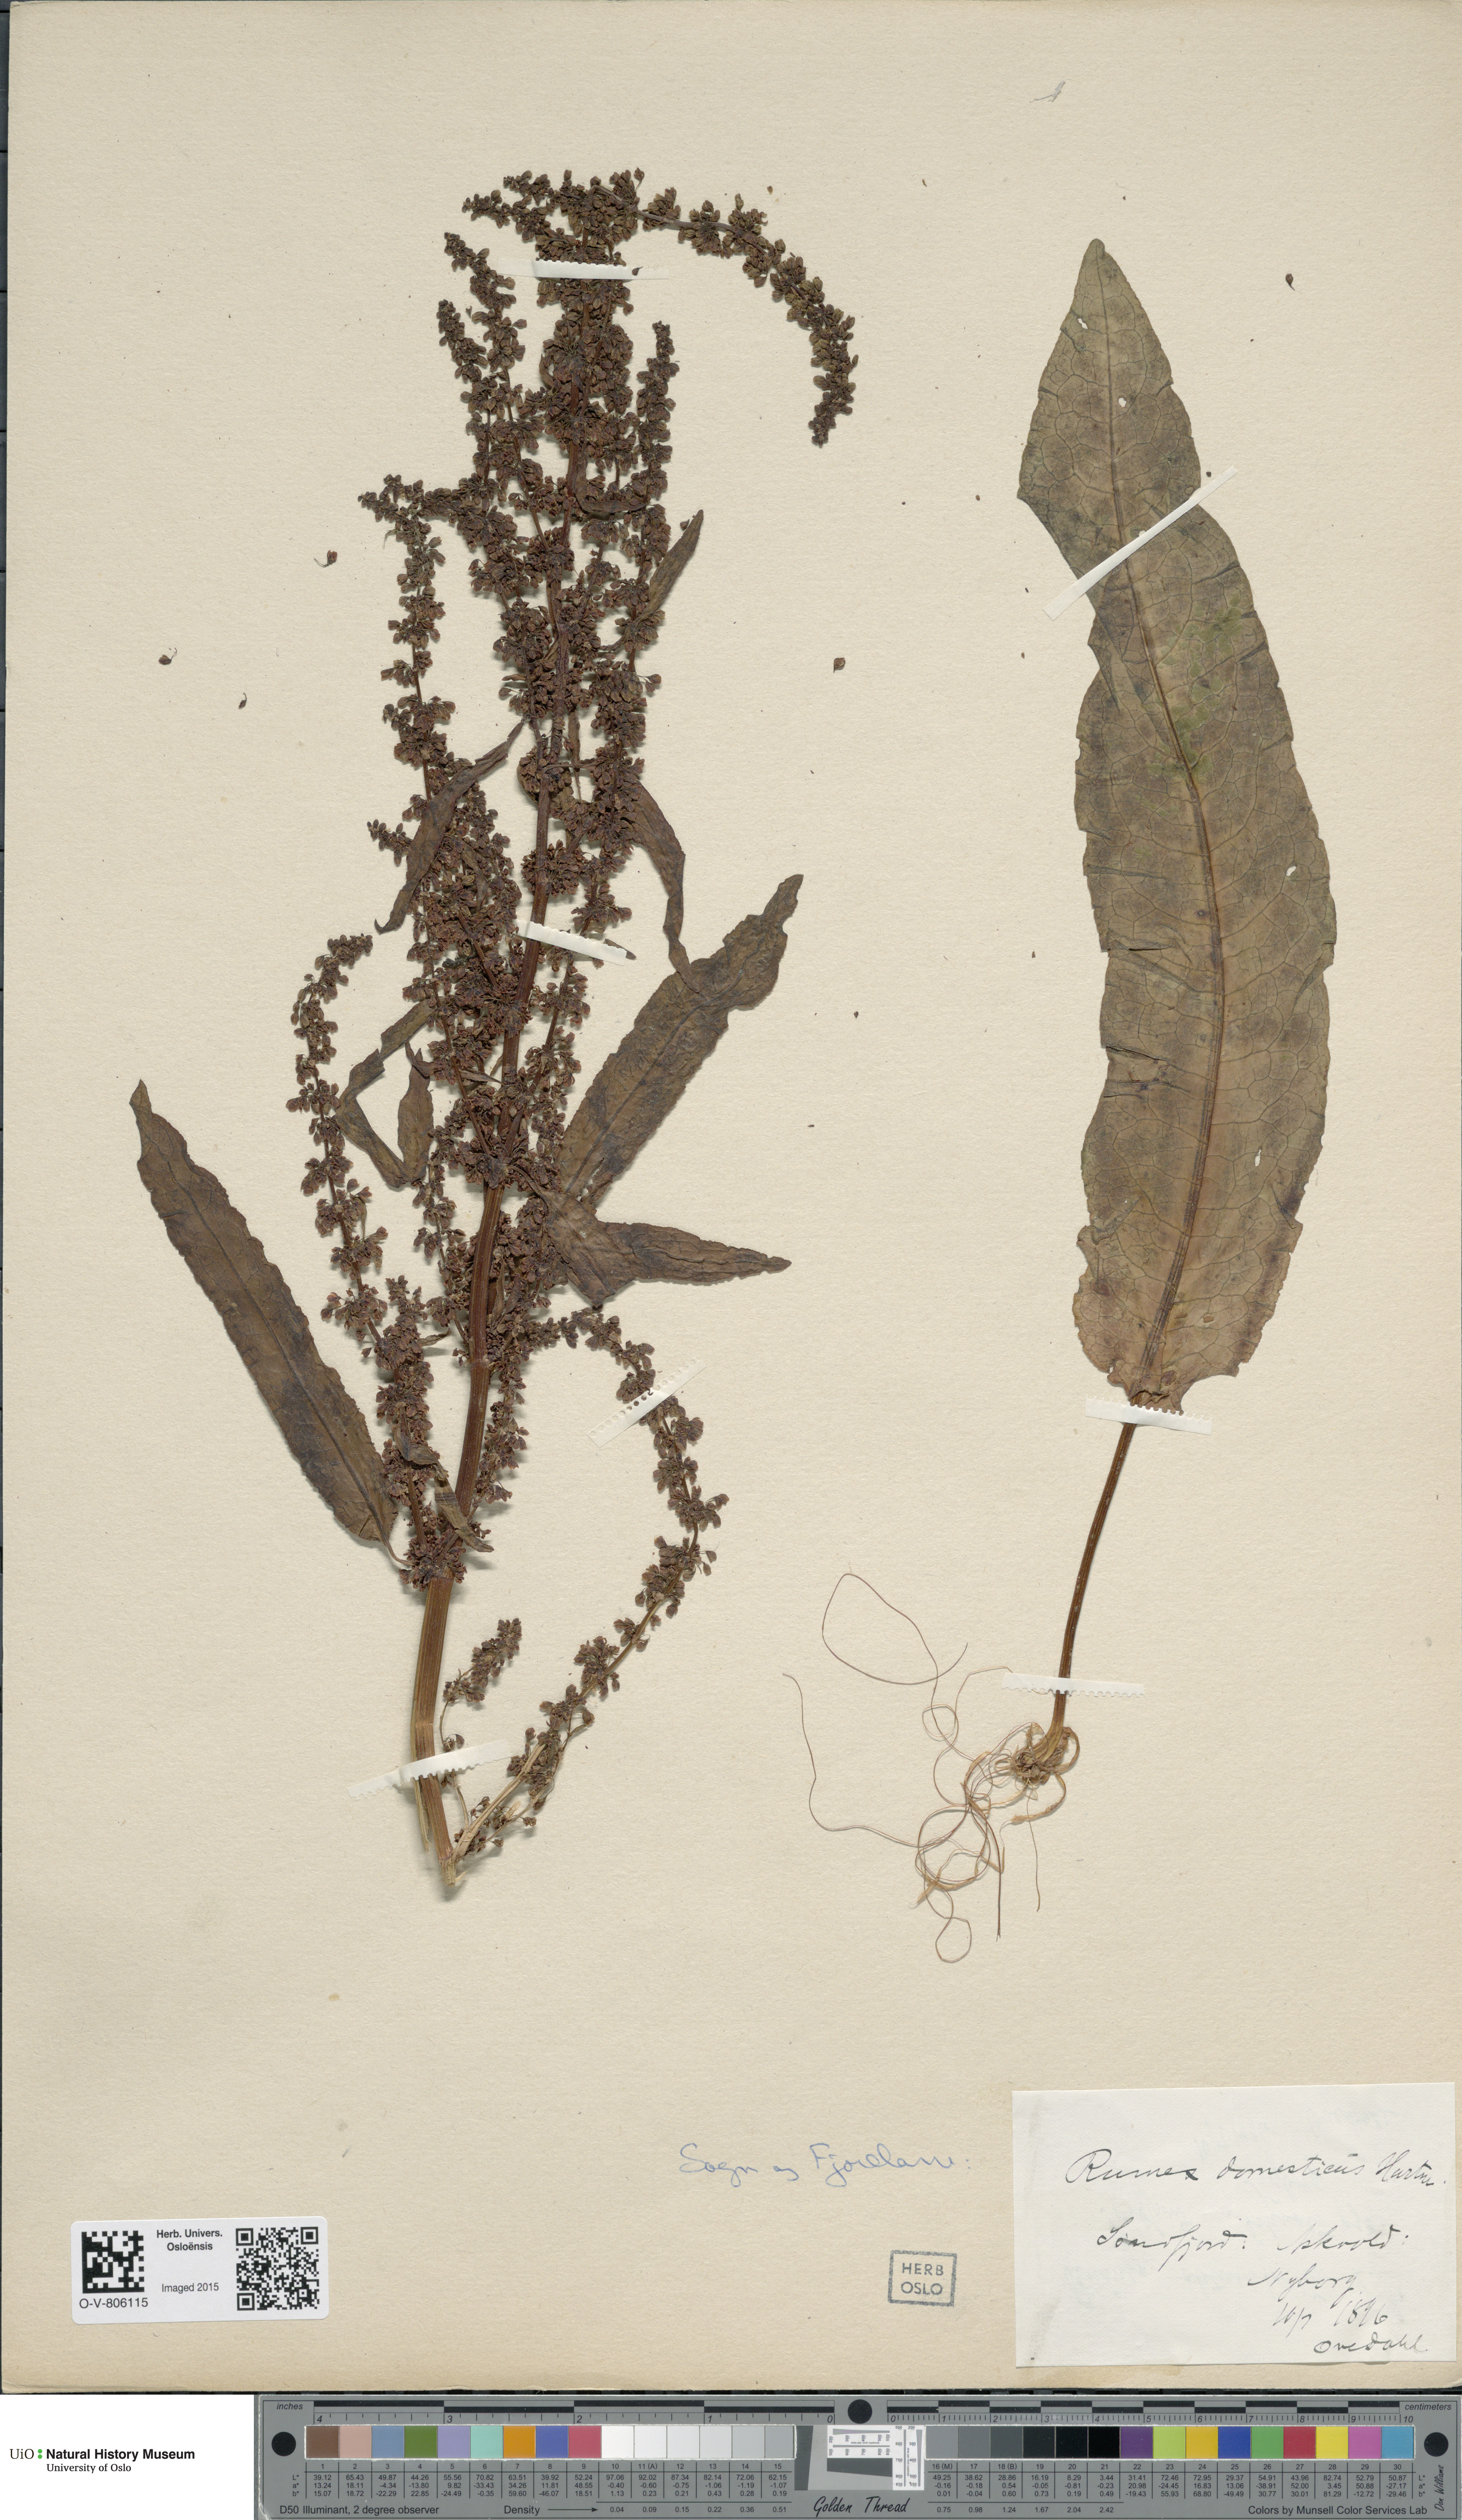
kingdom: Plantae
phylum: Tracheophyta
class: Magnoliopsida
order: Caryophyllales
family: Polygonaceae
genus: Rumex
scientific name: Rumex longifolius
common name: Dooryard dock
